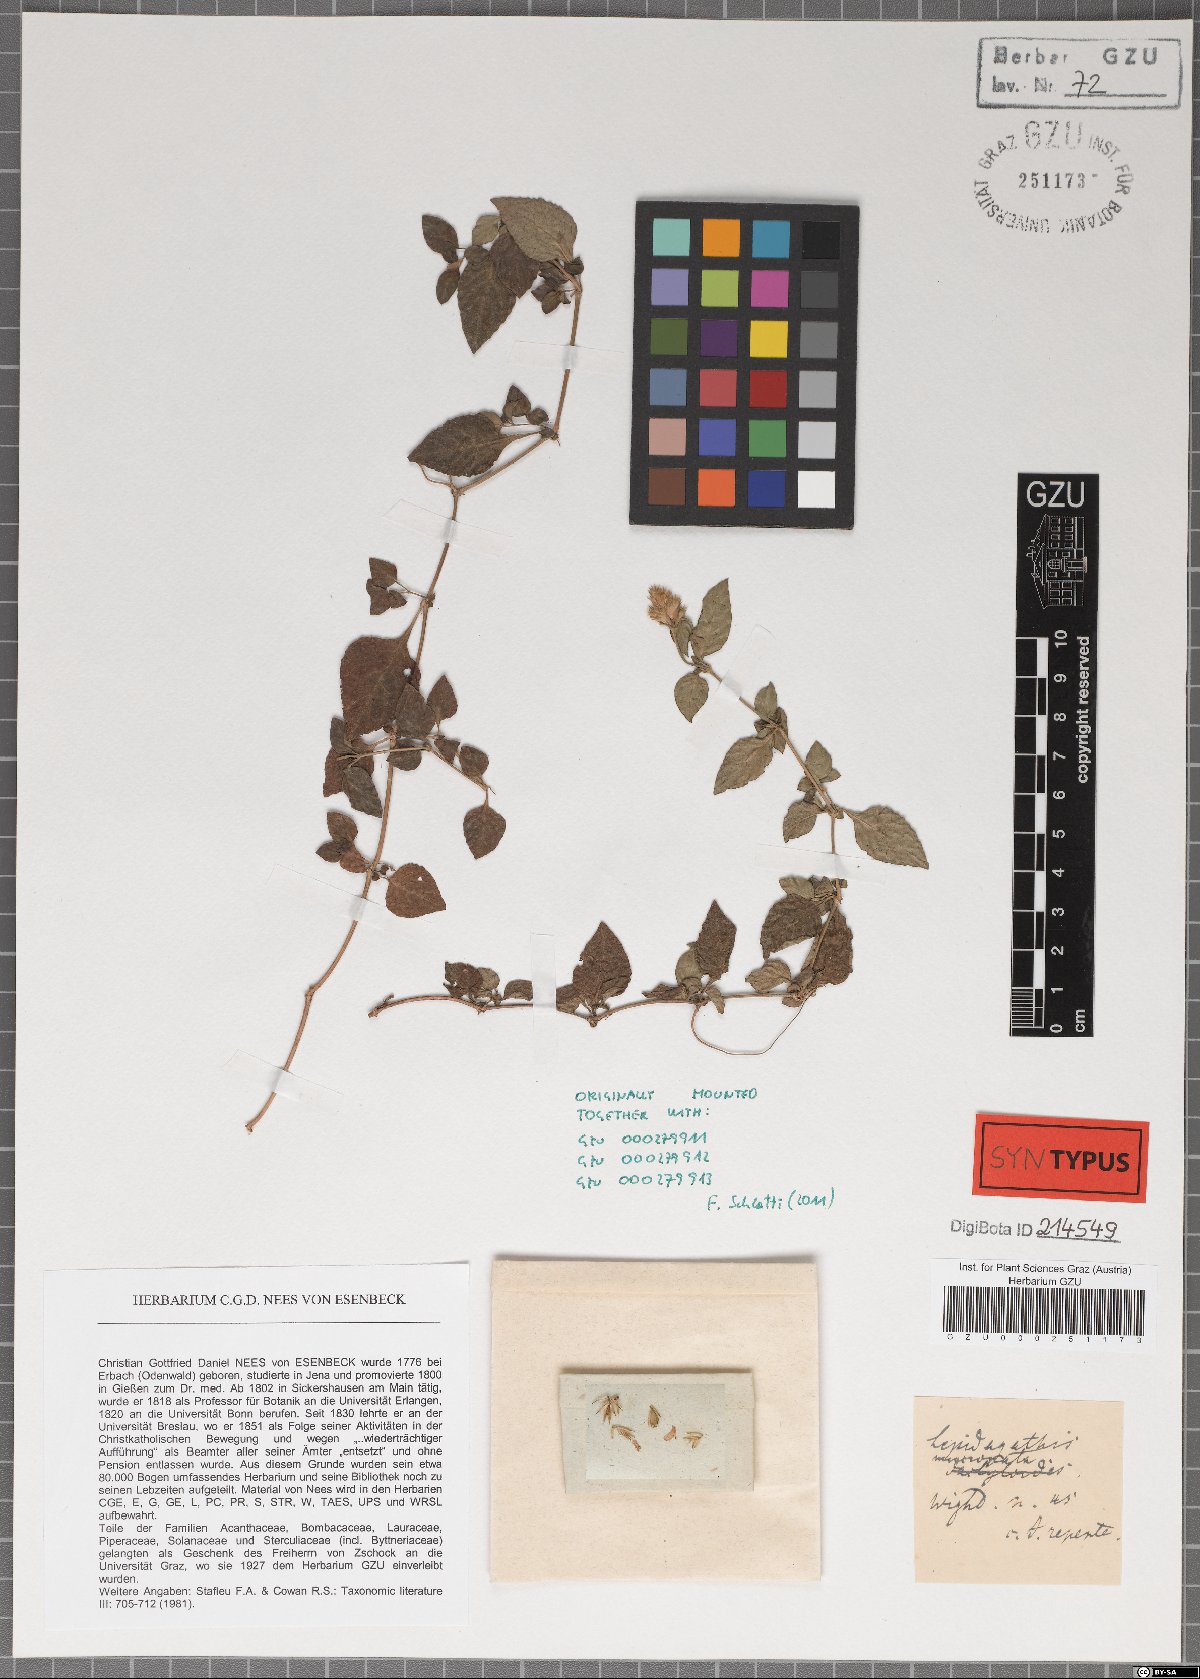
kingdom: Plantae
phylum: Tracheophyta
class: Magnoliopsida
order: Lamiales
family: Acanthaceae
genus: Lepidagathis
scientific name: Lepidagathis incurva
